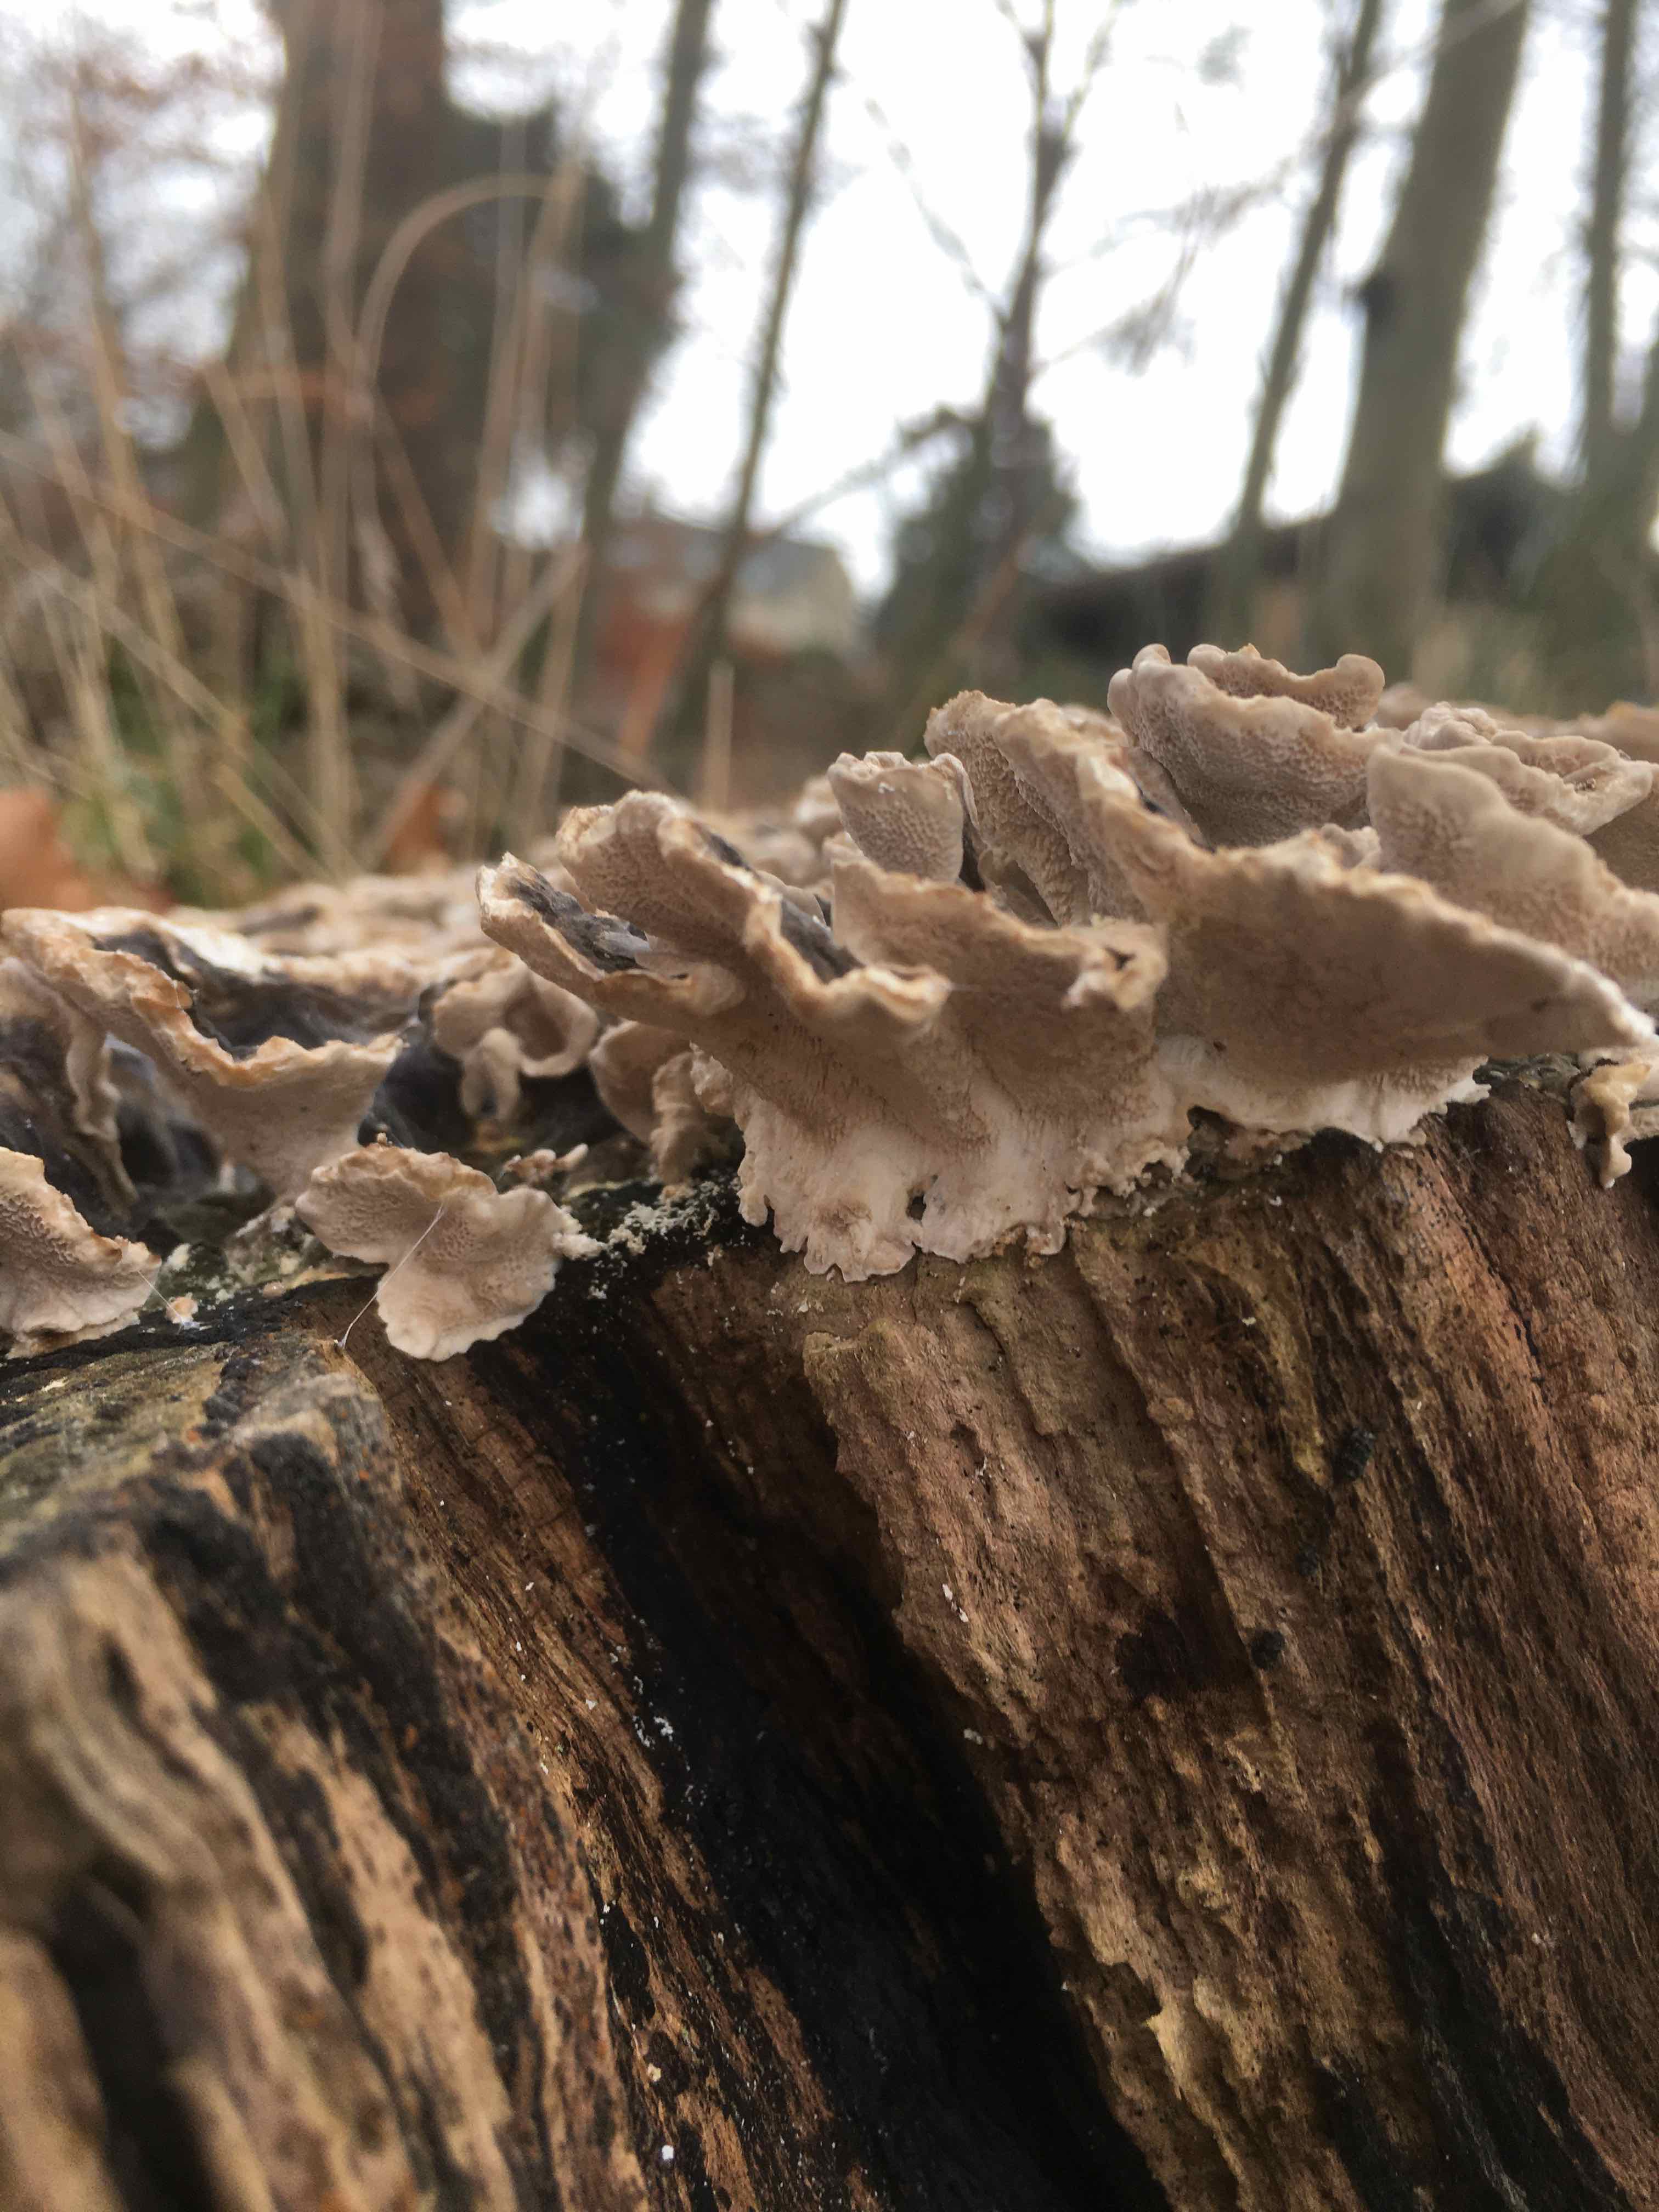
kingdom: Fungi
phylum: Basidiomycota
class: Agaricomycetes
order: Polyporales
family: Polyporaceae
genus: Trametes
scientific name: Trametes versicolor
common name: broget læderporesvamp
